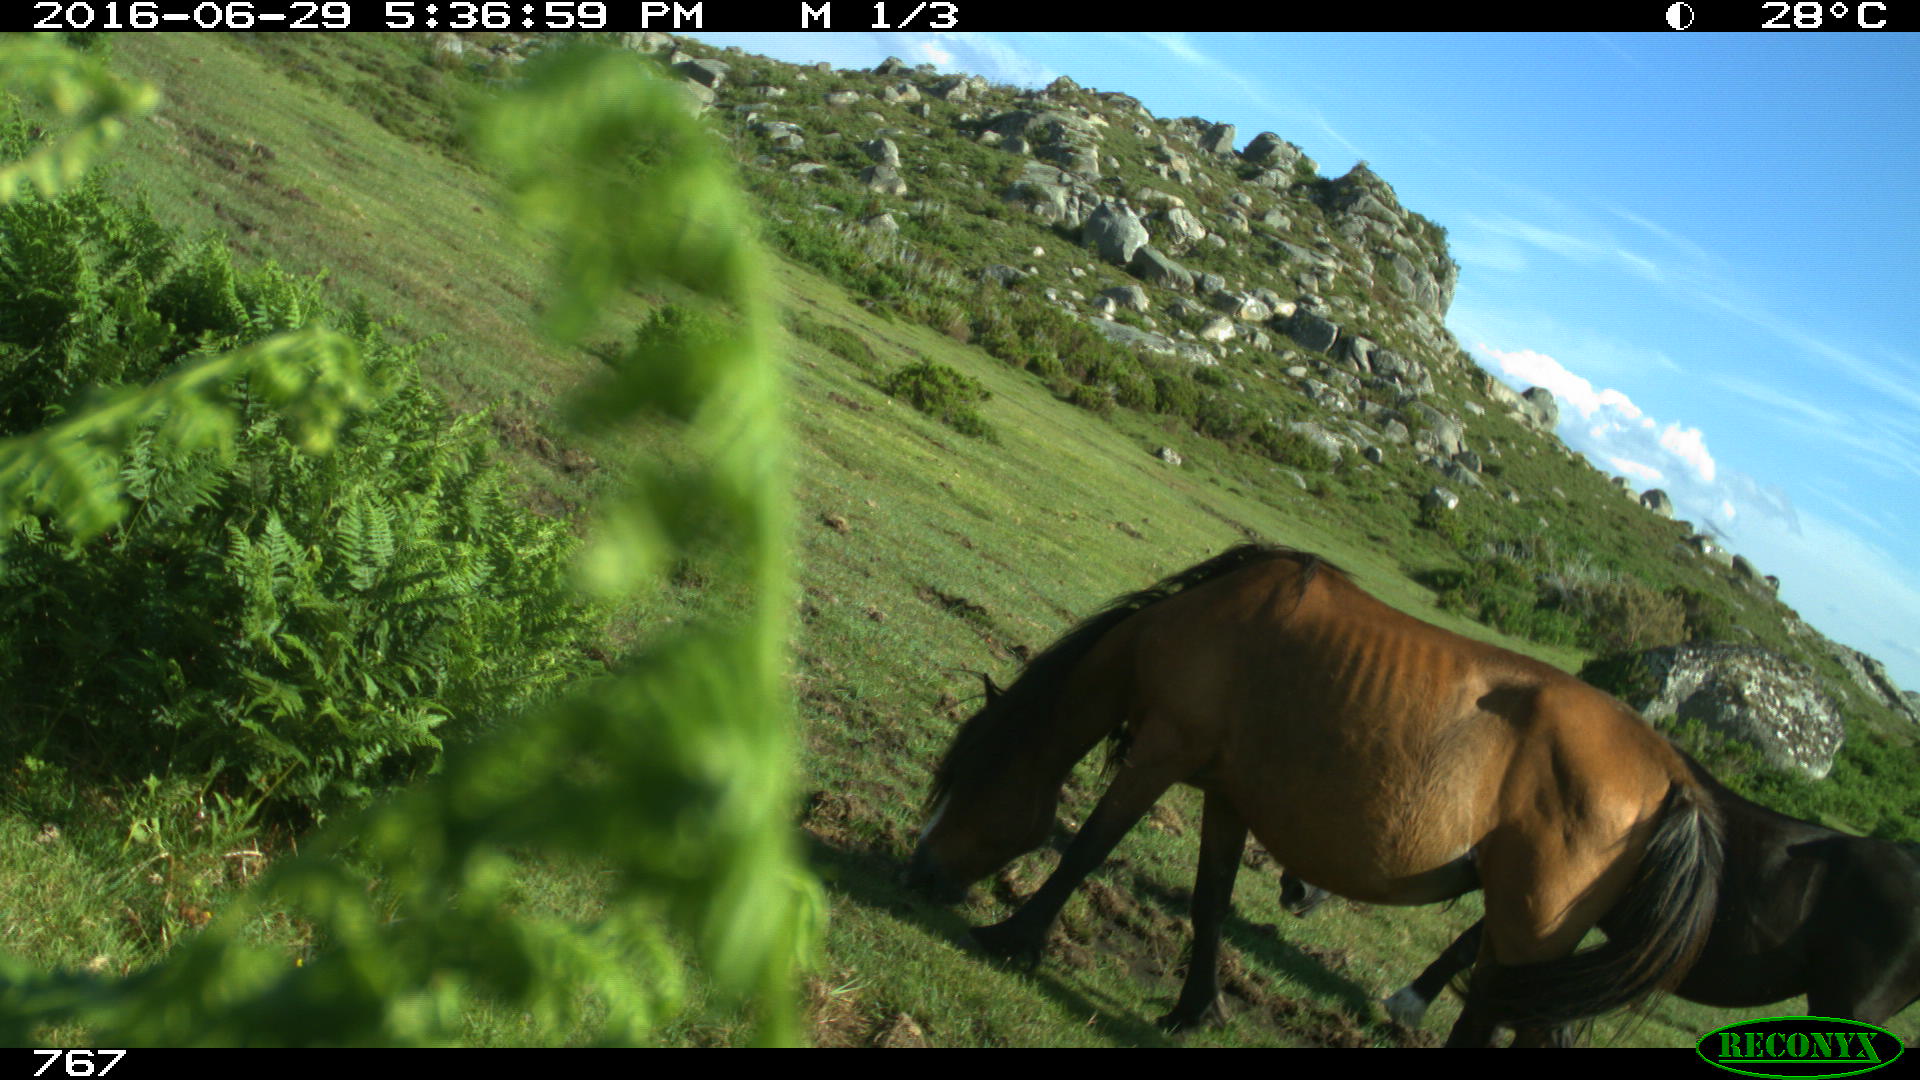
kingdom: Animalia
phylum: Chordata
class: Mammalia
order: Perissodactyla
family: Equidae
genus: Equus
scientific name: Equus caballus
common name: Horse
